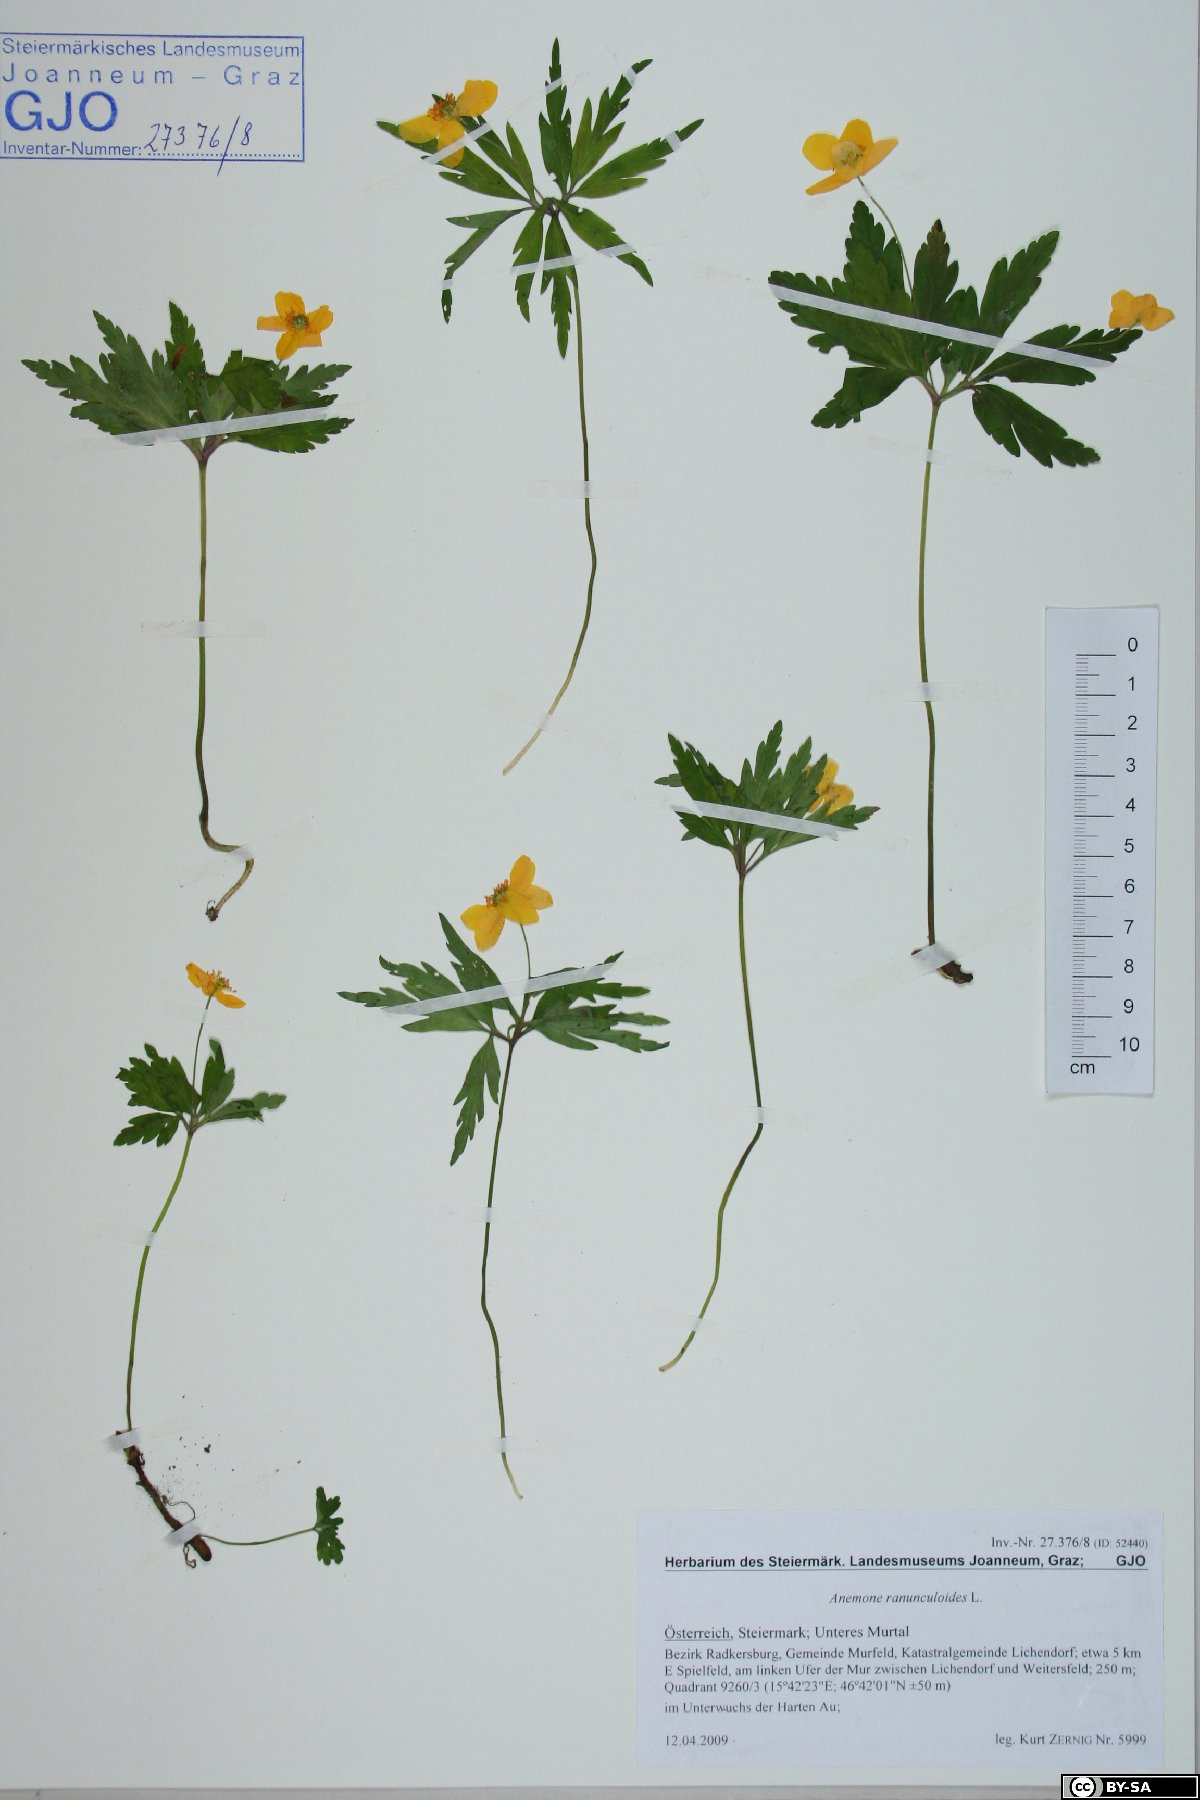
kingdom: Plantae
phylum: Tracheophyta
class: Magnoliopsida
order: Ranunculales
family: Ranunculaceae
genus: Anemone
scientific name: Anemone ranunculoides
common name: Yellow anemone
